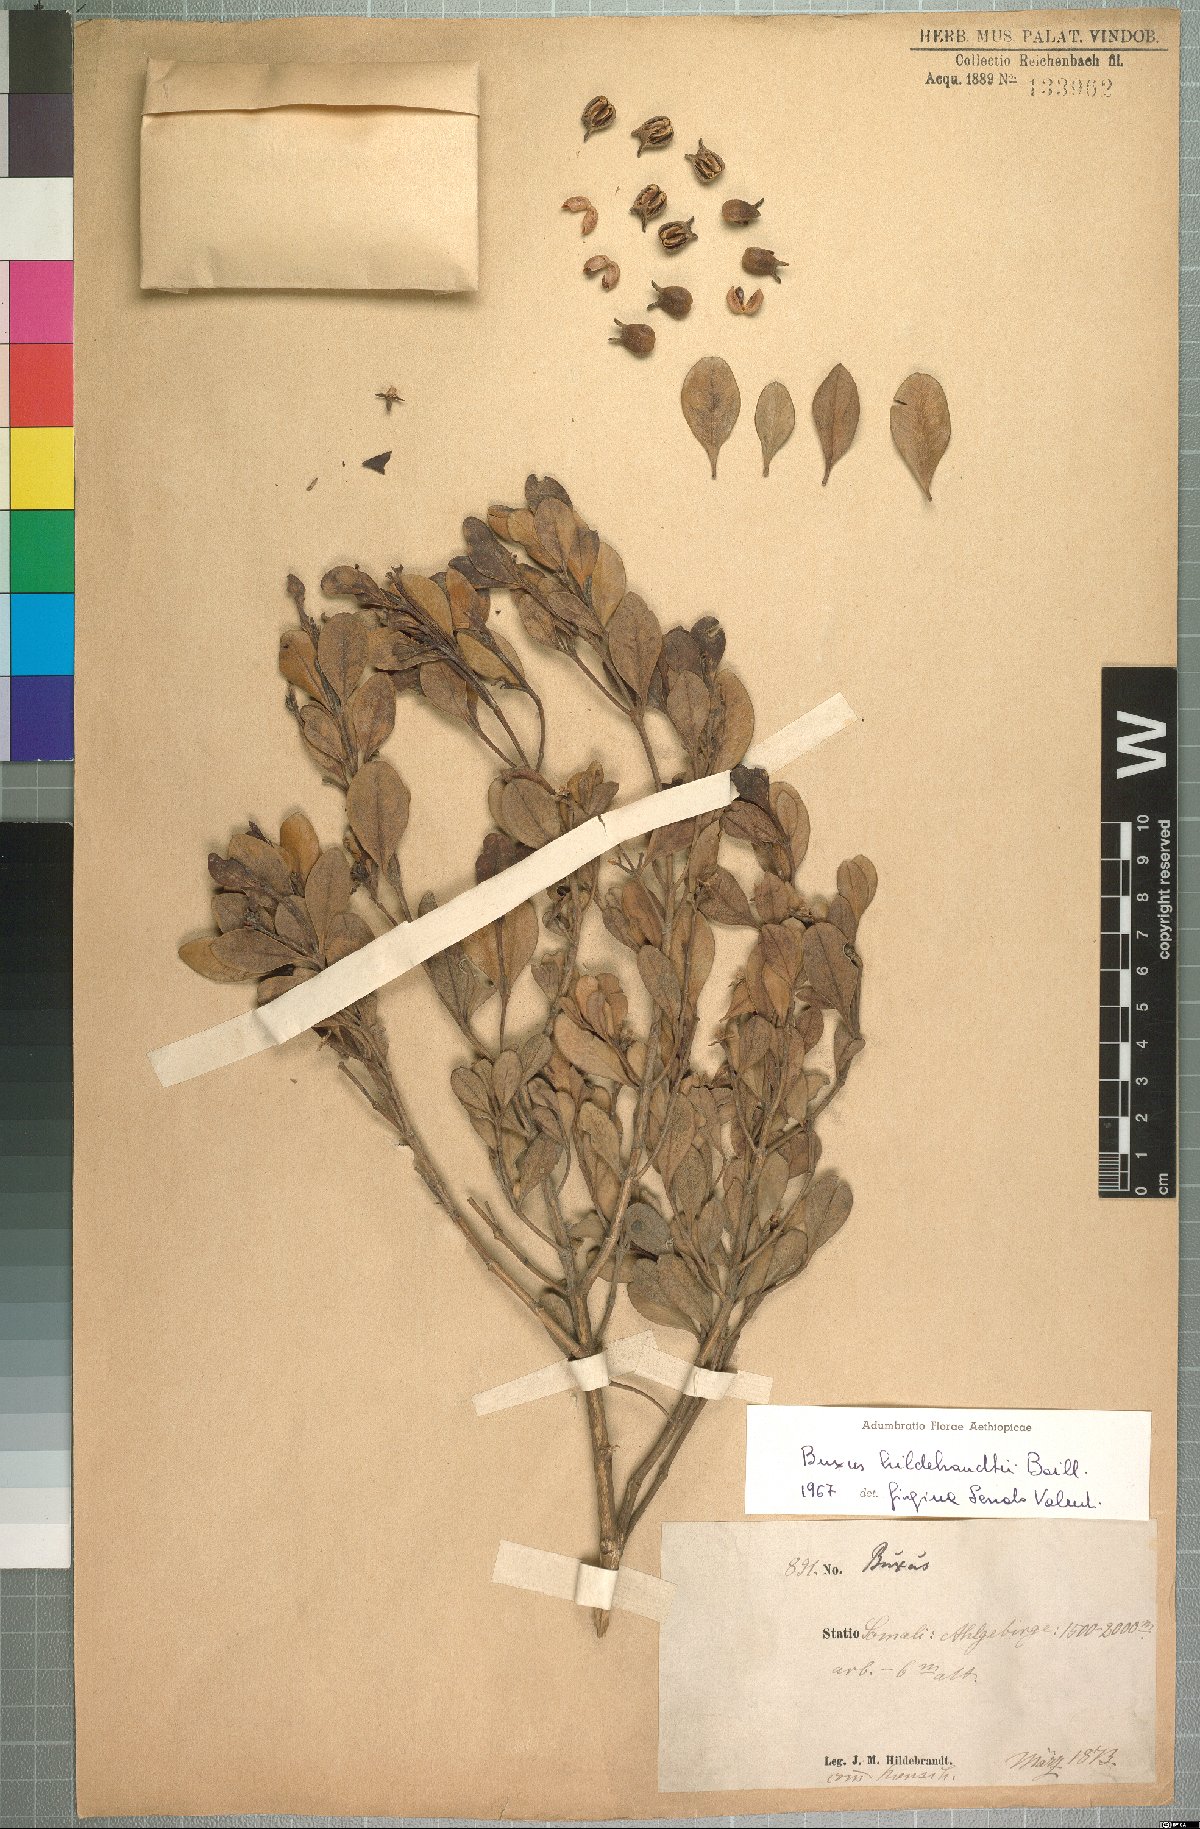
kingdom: Plantae
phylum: Tracheophyta
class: Magnoliopsida
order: Buxales
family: Buxaceae
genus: Buxus
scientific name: Buxus hildebrandtii
